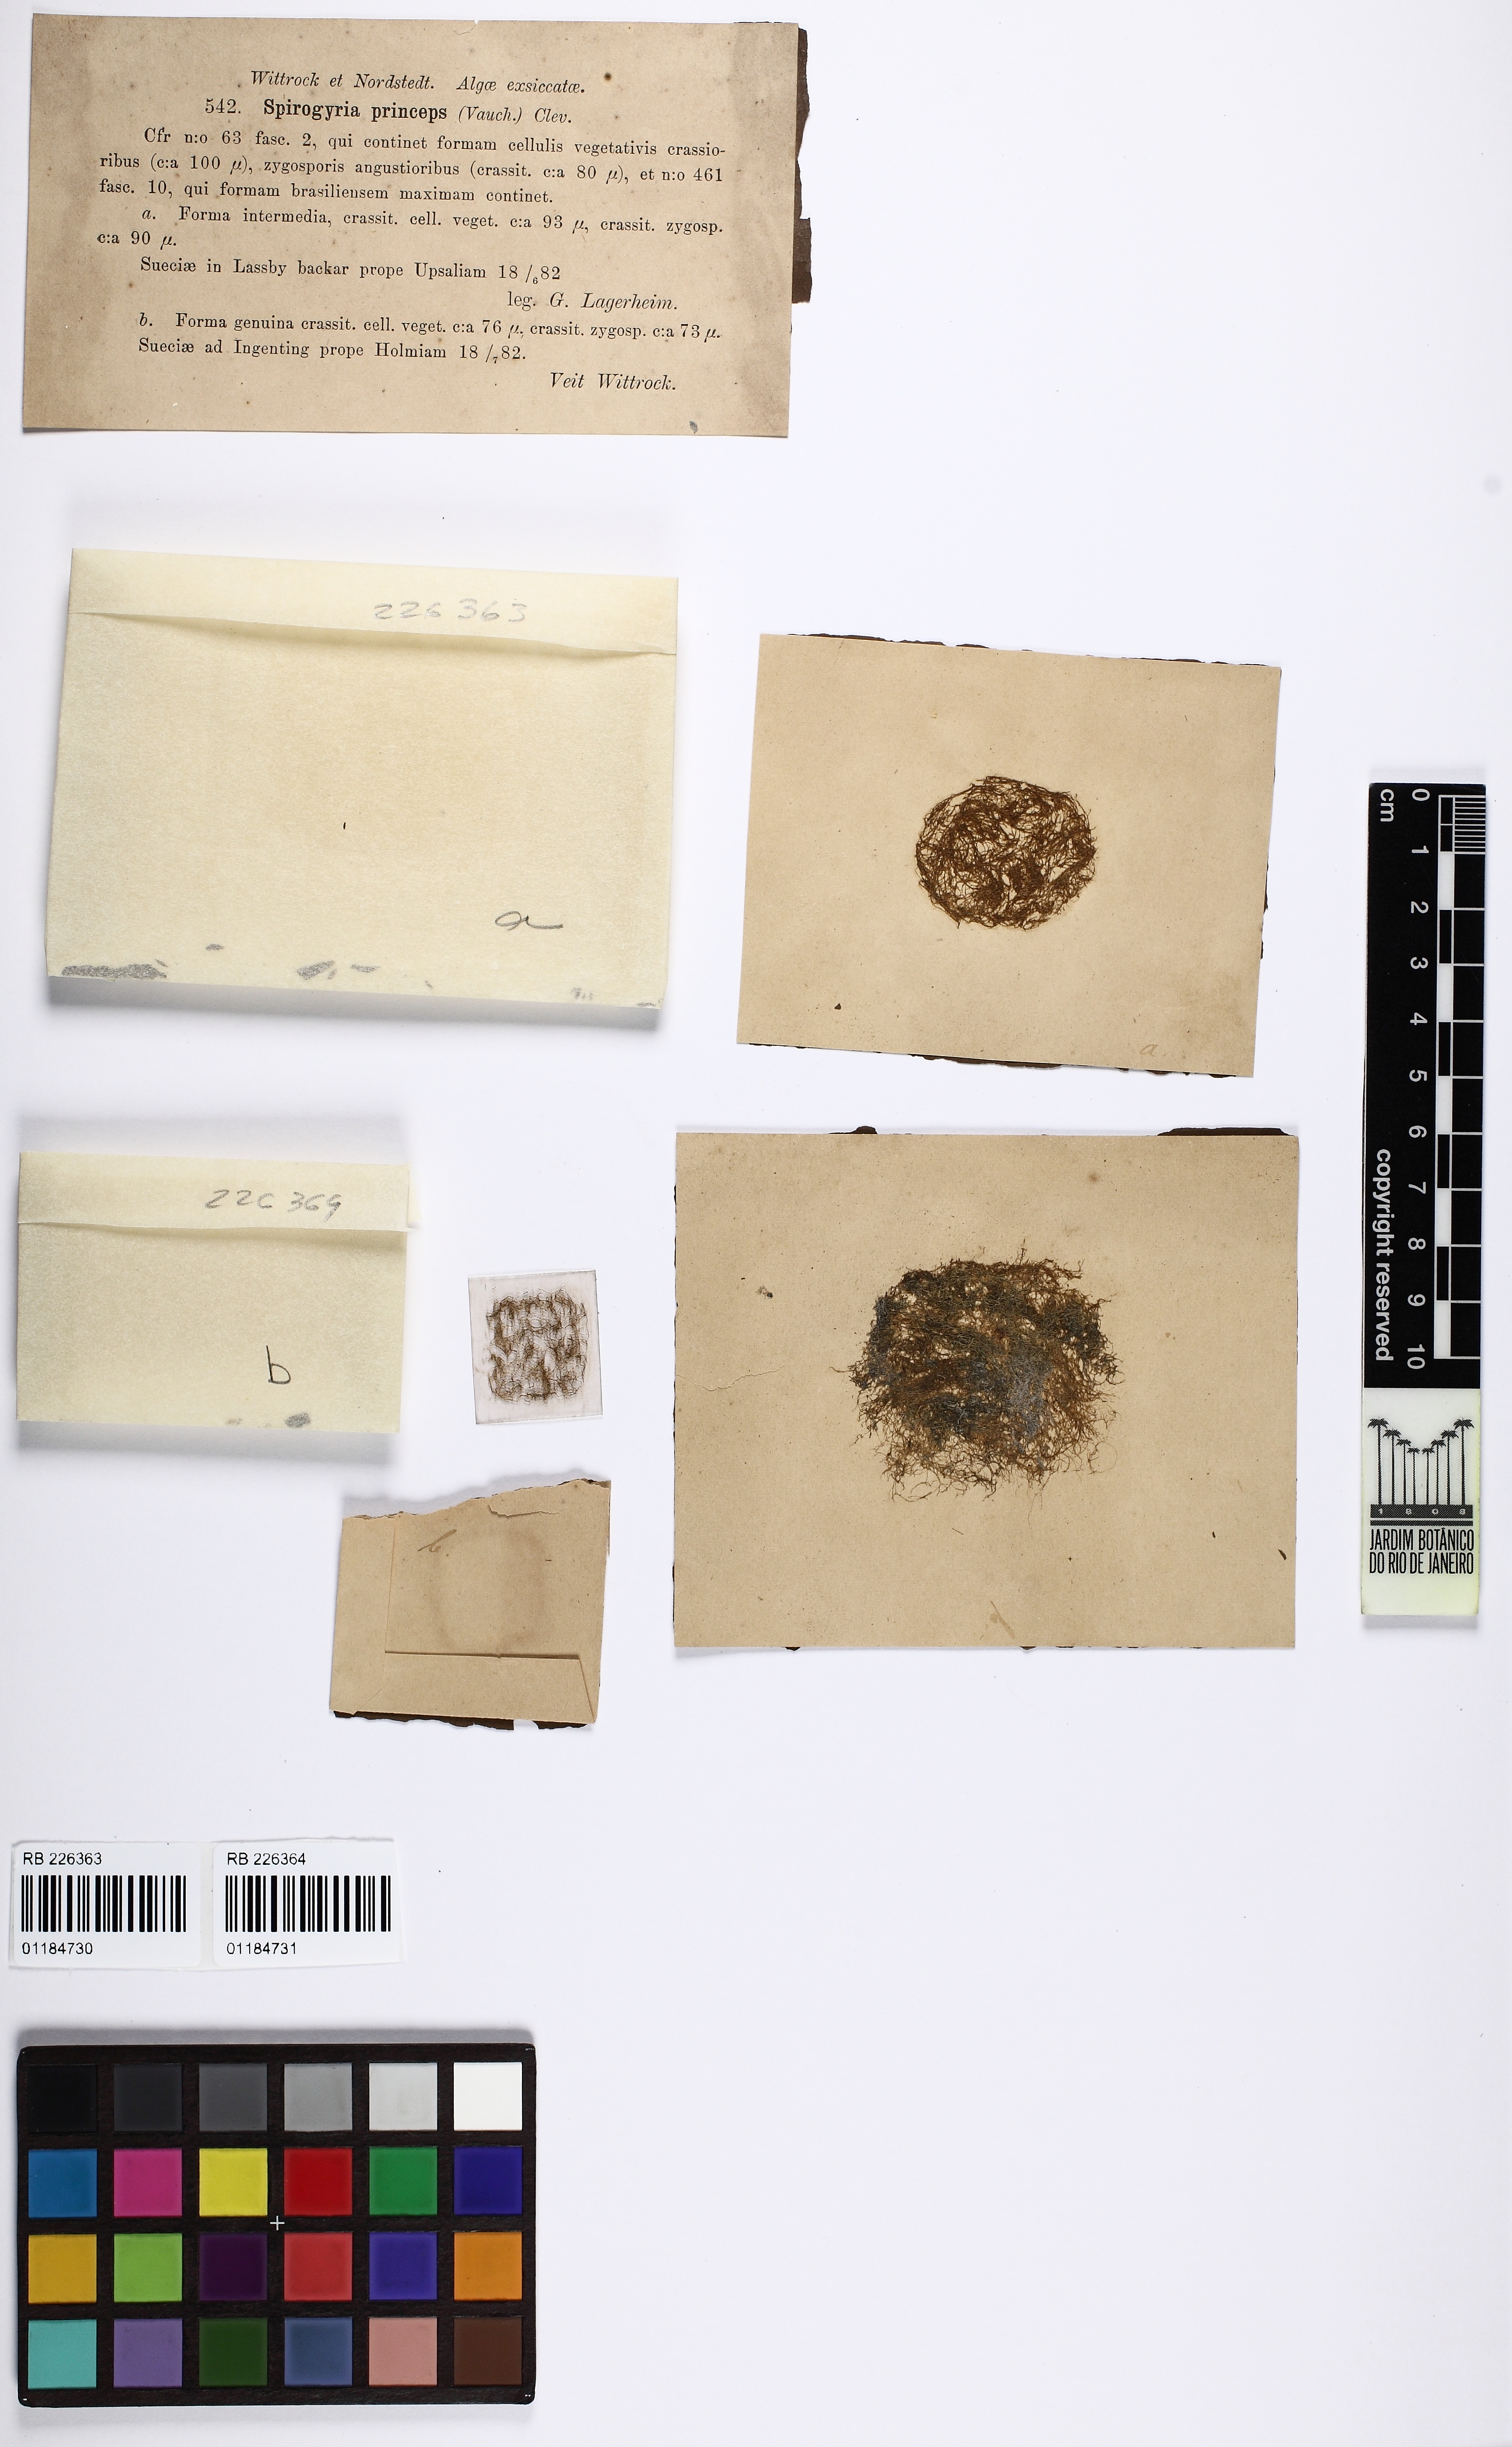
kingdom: Plantae
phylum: Charophyta
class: Zygnematophyceae
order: Zygnematales
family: Zygnemataceae
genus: Spirogyra
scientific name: Spirogyra princeps
